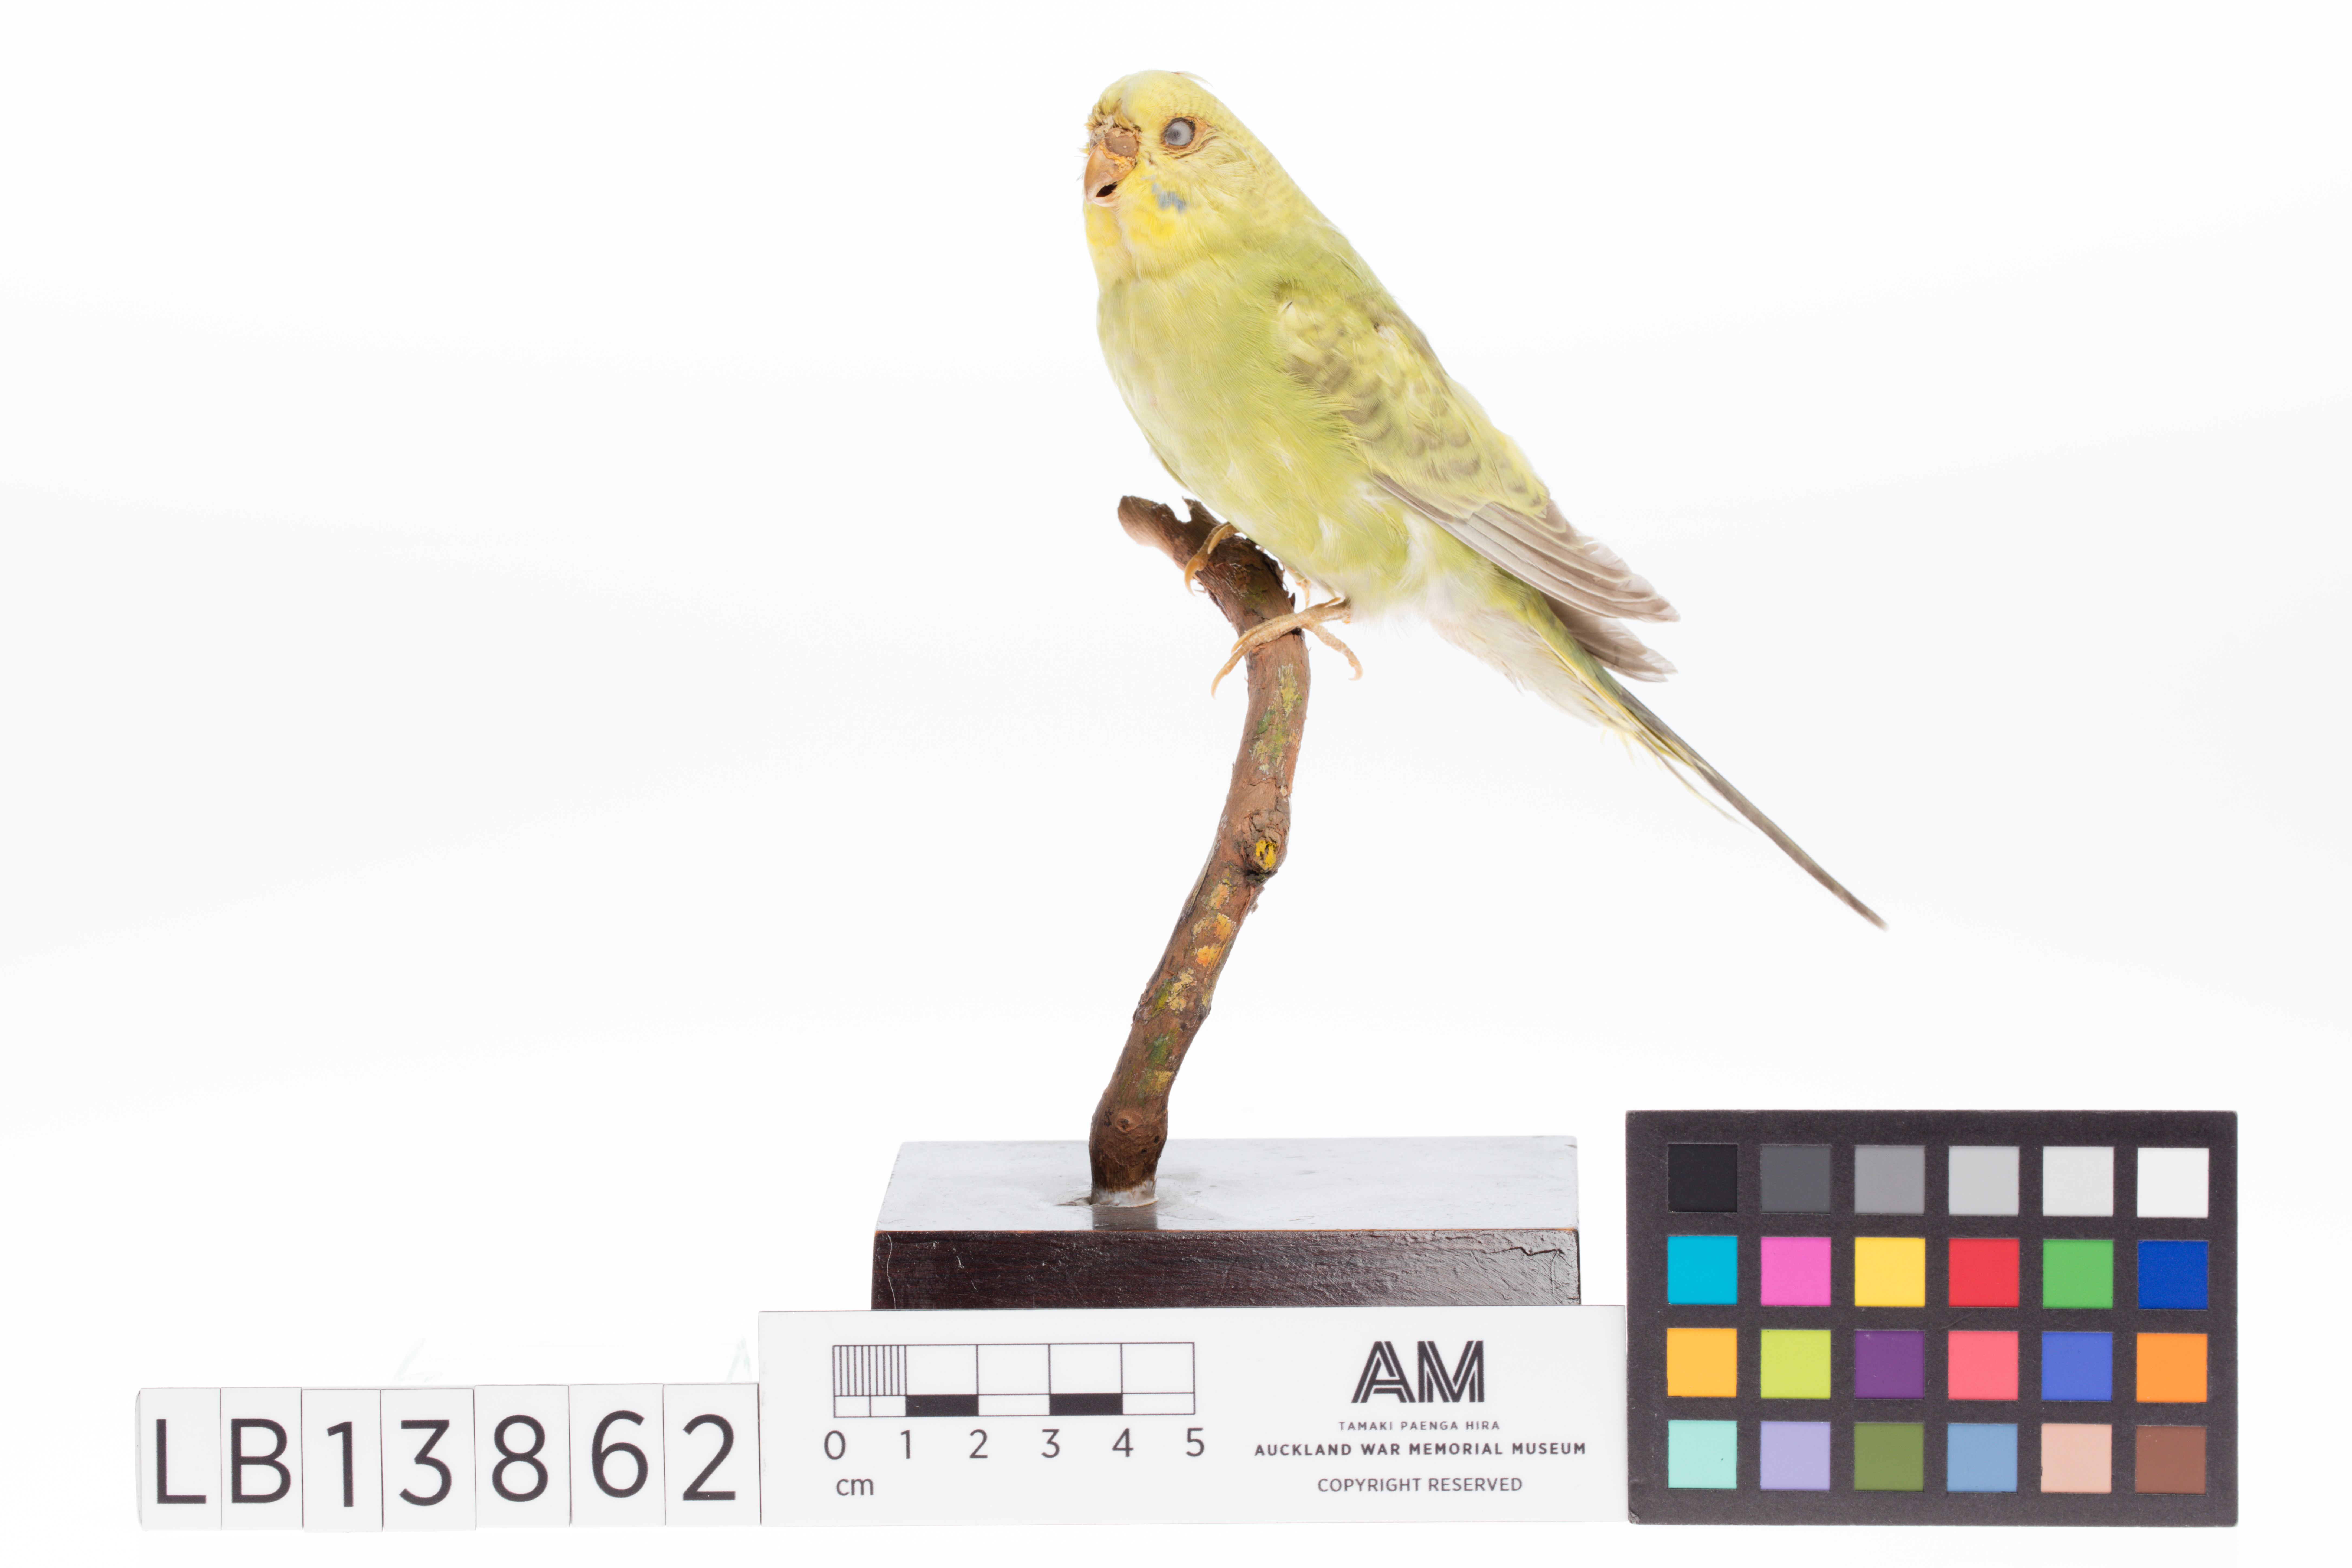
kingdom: Animalia
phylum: Chordata
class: Aves
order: Psittaciformes
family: Psittacidae
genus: Melopsittacus
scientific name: Melopsittacus undulatus
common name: Budgerigar
